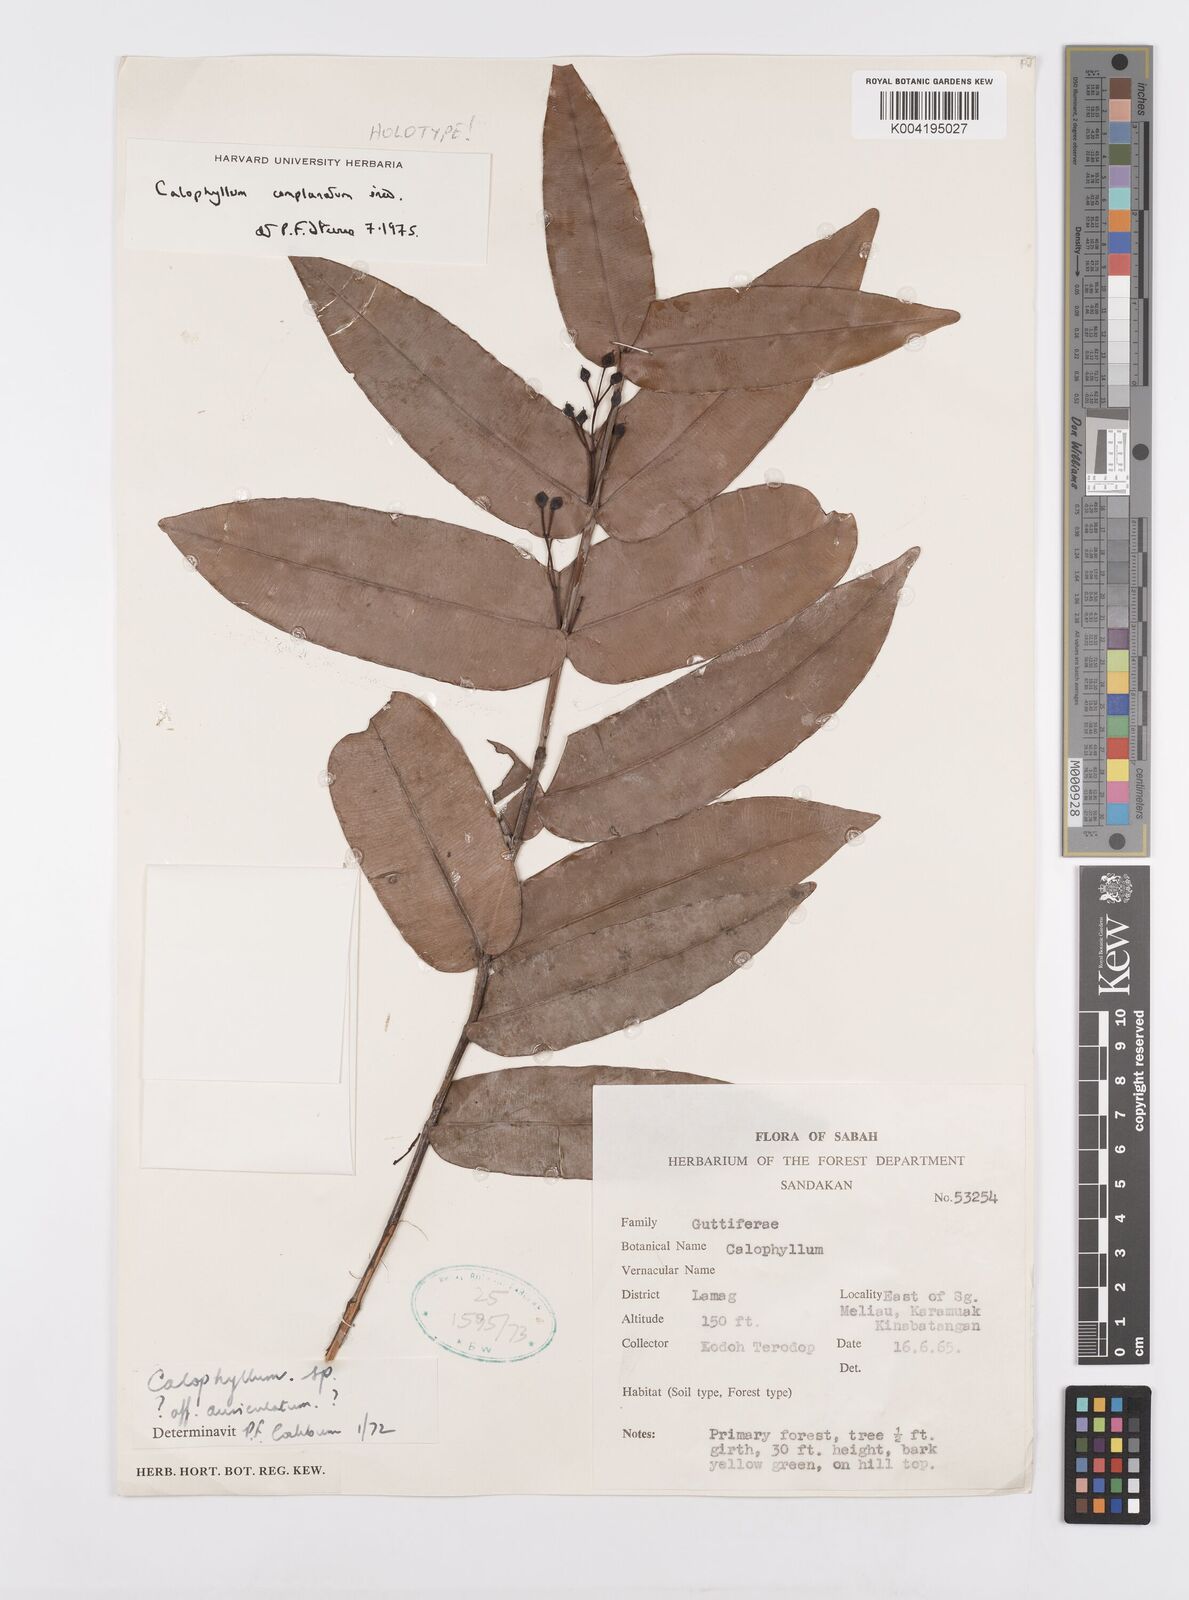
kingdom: Plantae
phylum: Tracheophyta
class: Magnoliopsida
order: Malpighiales
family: Calophyllaceae
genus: Calophyllum
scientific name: Calophyllum complanatum
